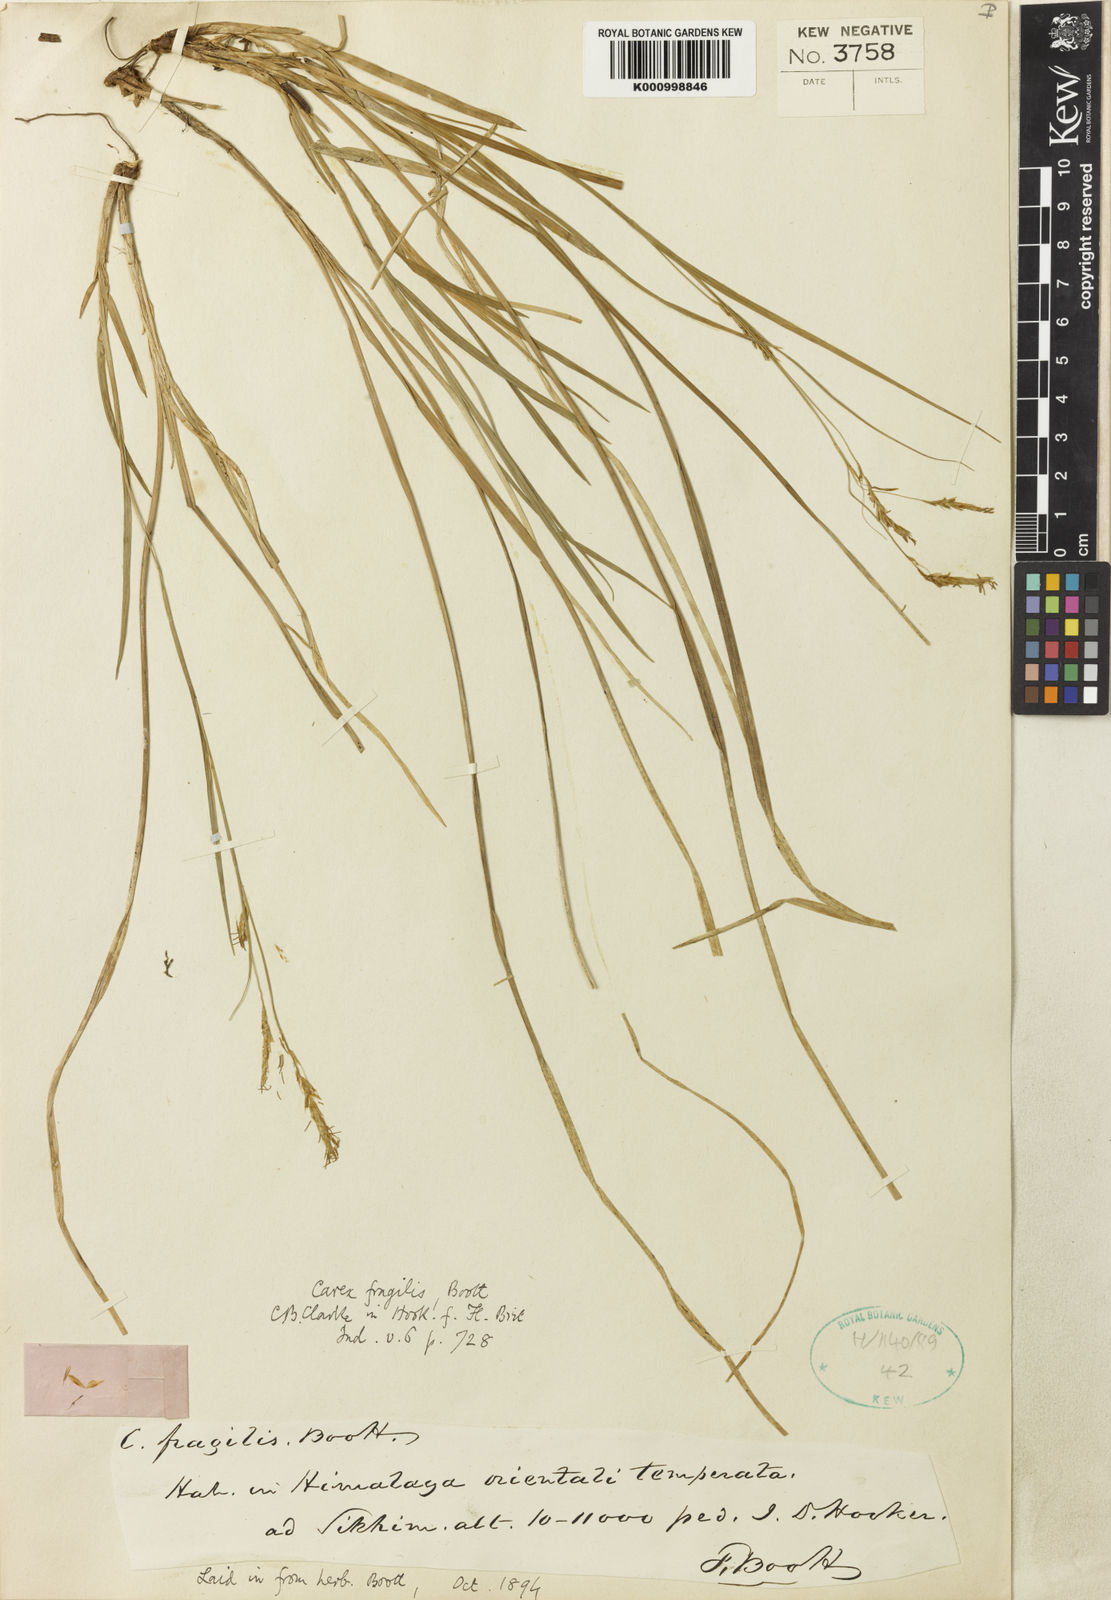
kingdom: Plantae
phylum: Tracheophyta
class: Liliopsida
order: Poales
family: Cyperaceae
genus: Carex
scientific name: Carex fragilis
